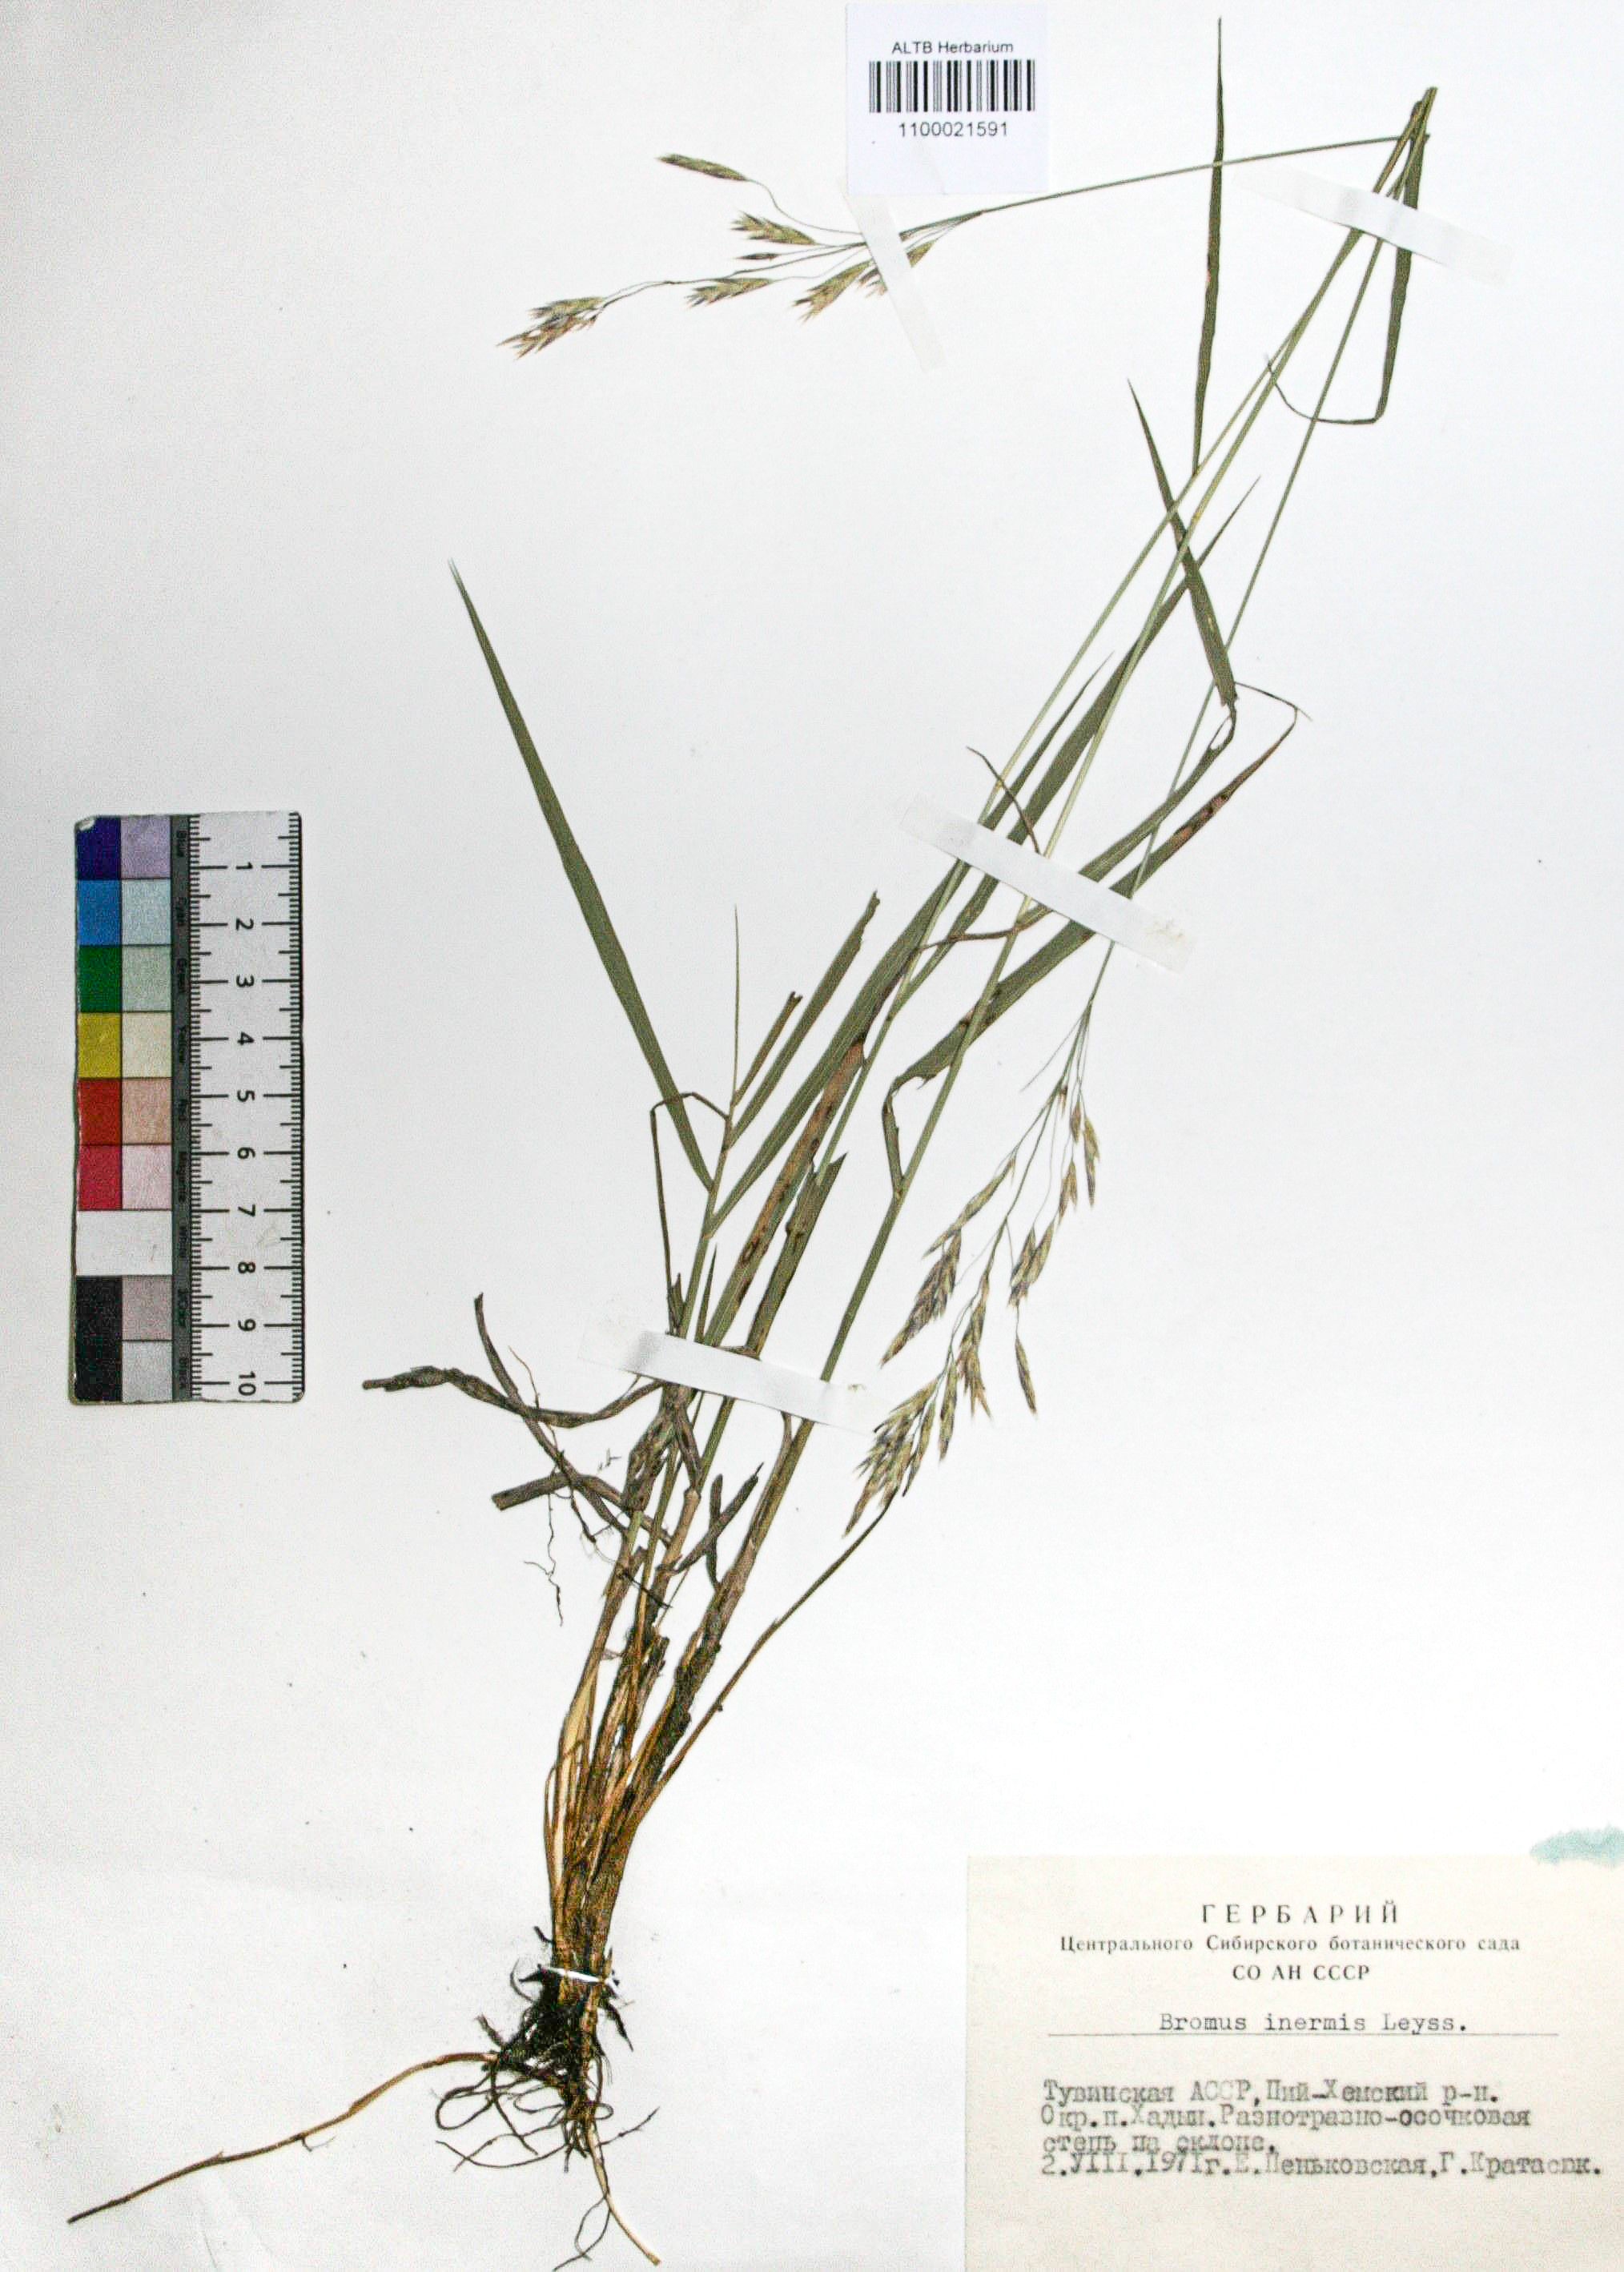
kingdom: Plantae
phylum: Tracheophyta
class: Liliopsida
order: Poales
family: Poaceae
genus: Bromus
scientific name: Bromus inermis
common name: Smooth brome
